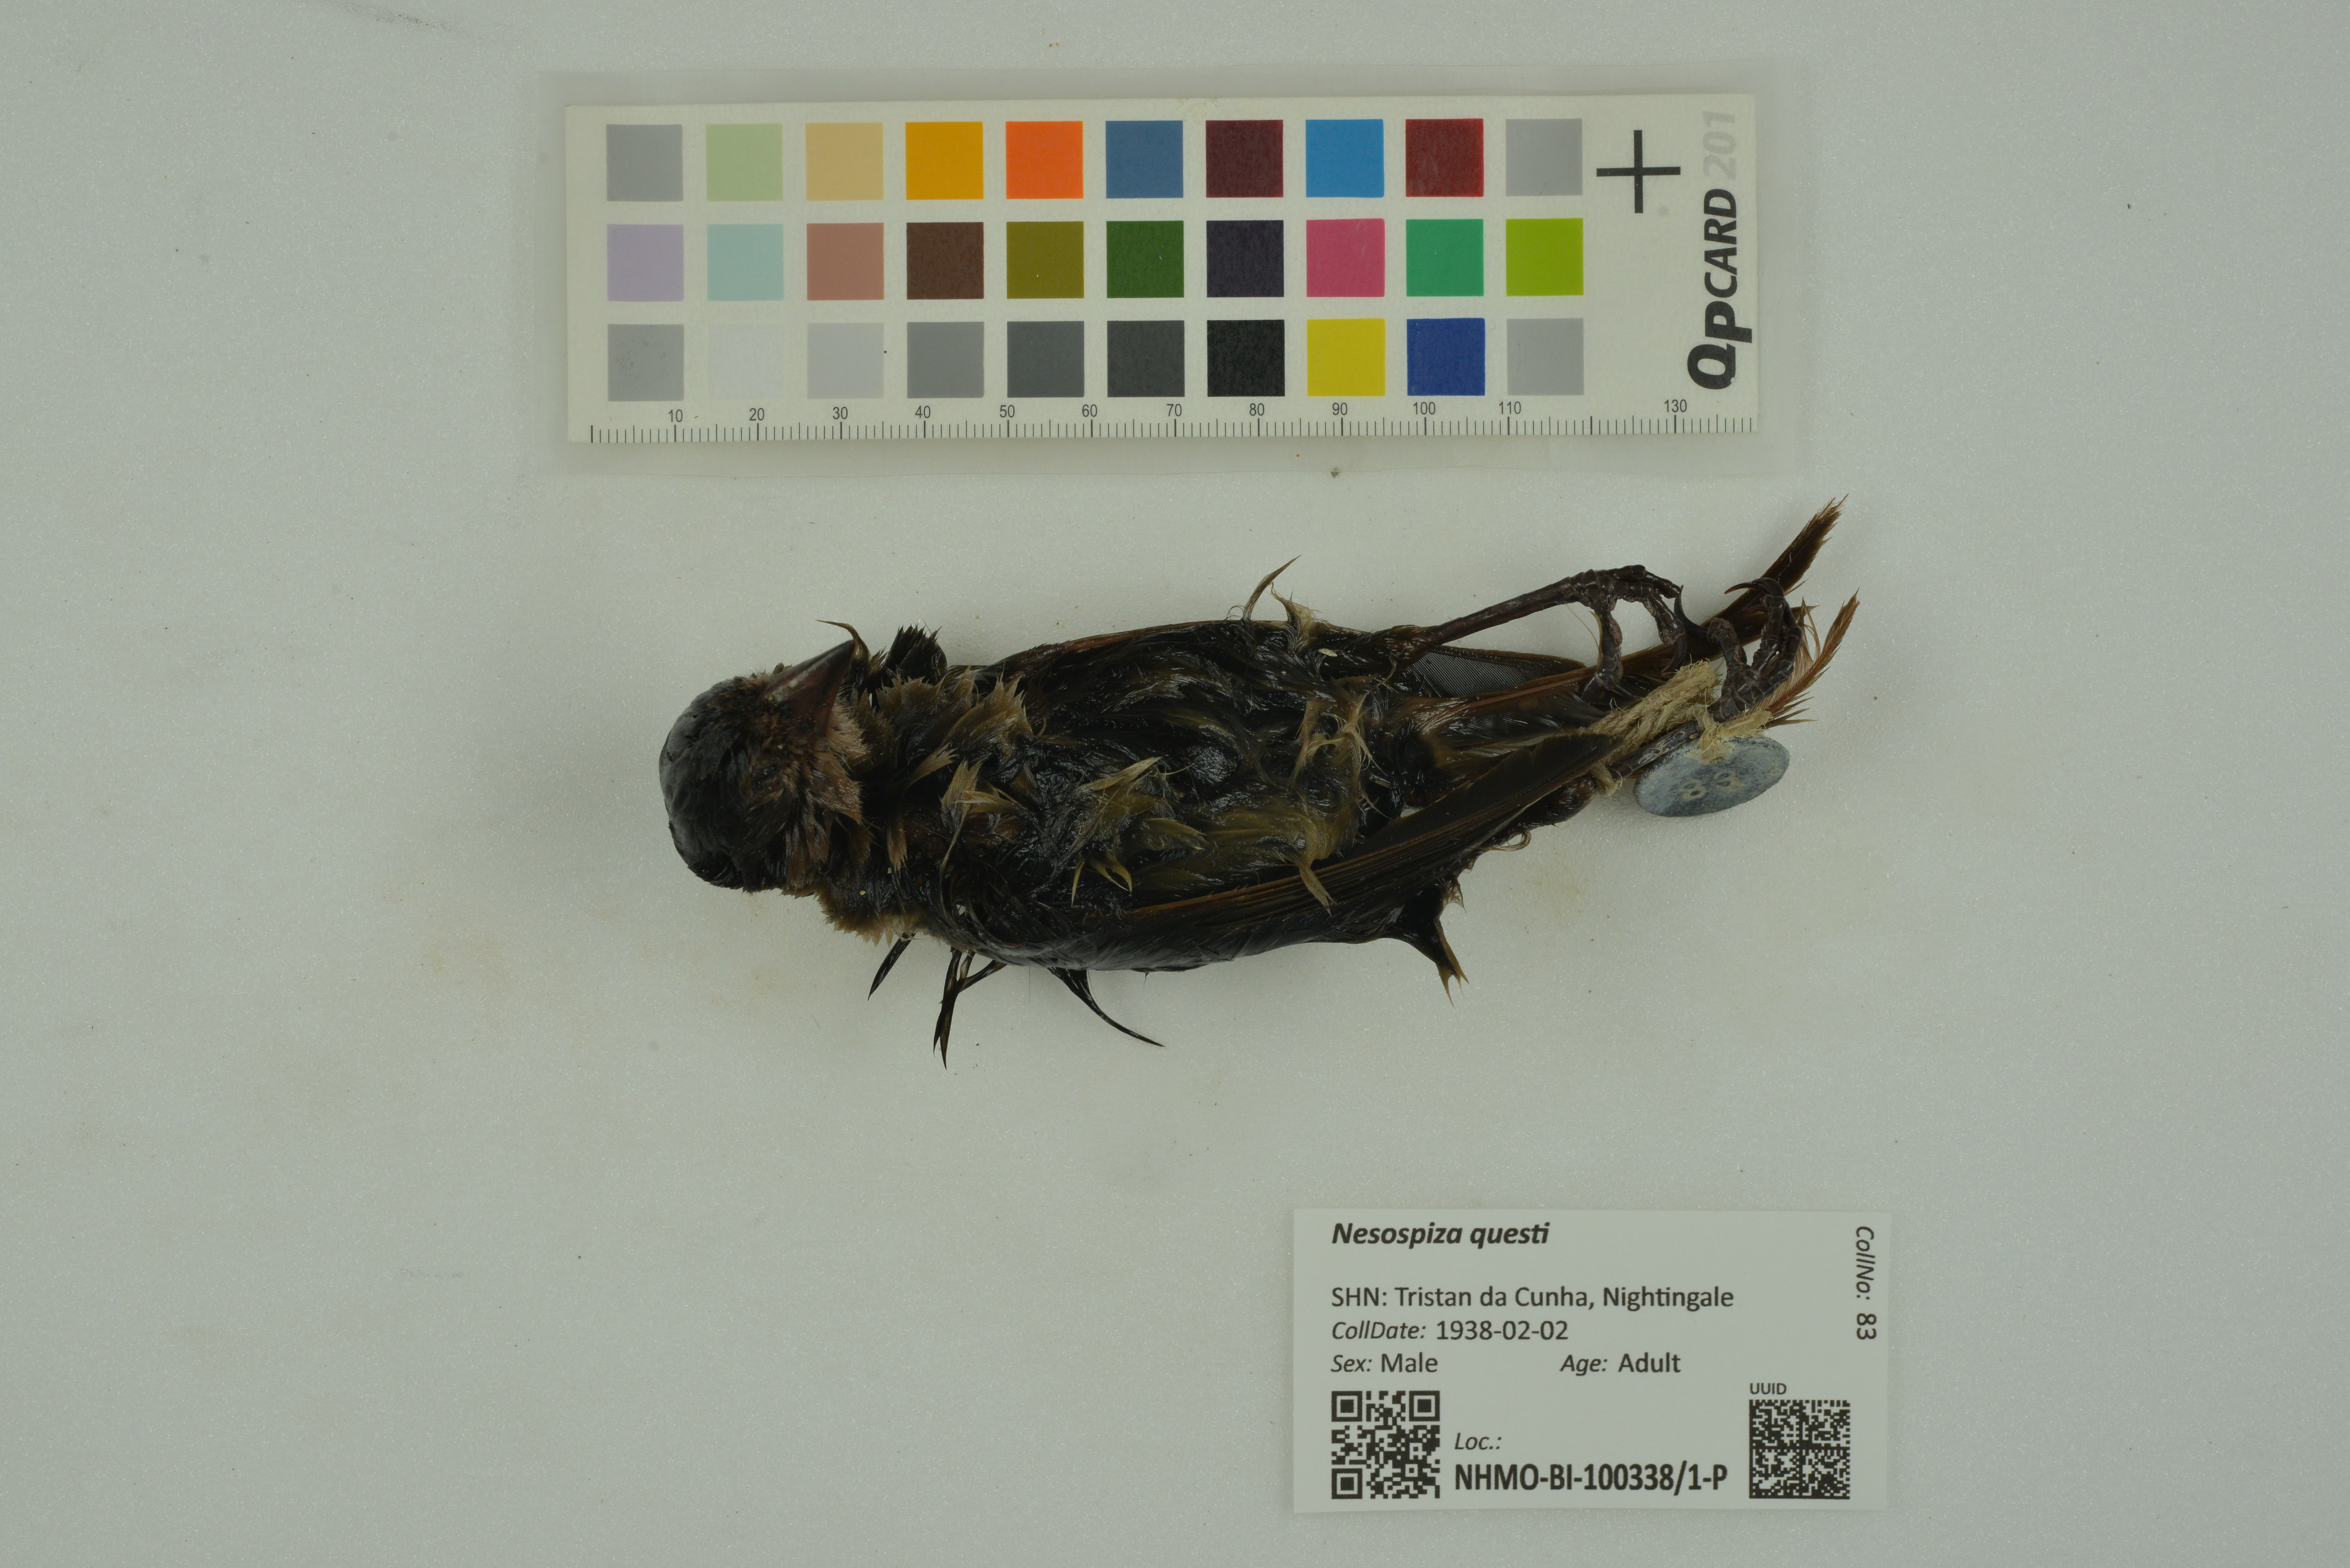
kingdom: Animalia
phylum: Chordata
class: Aves
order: Passeriformes
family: Thraupidae
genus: Nesospiza
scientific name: Nesospiza questi
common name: Nightingale island finch
